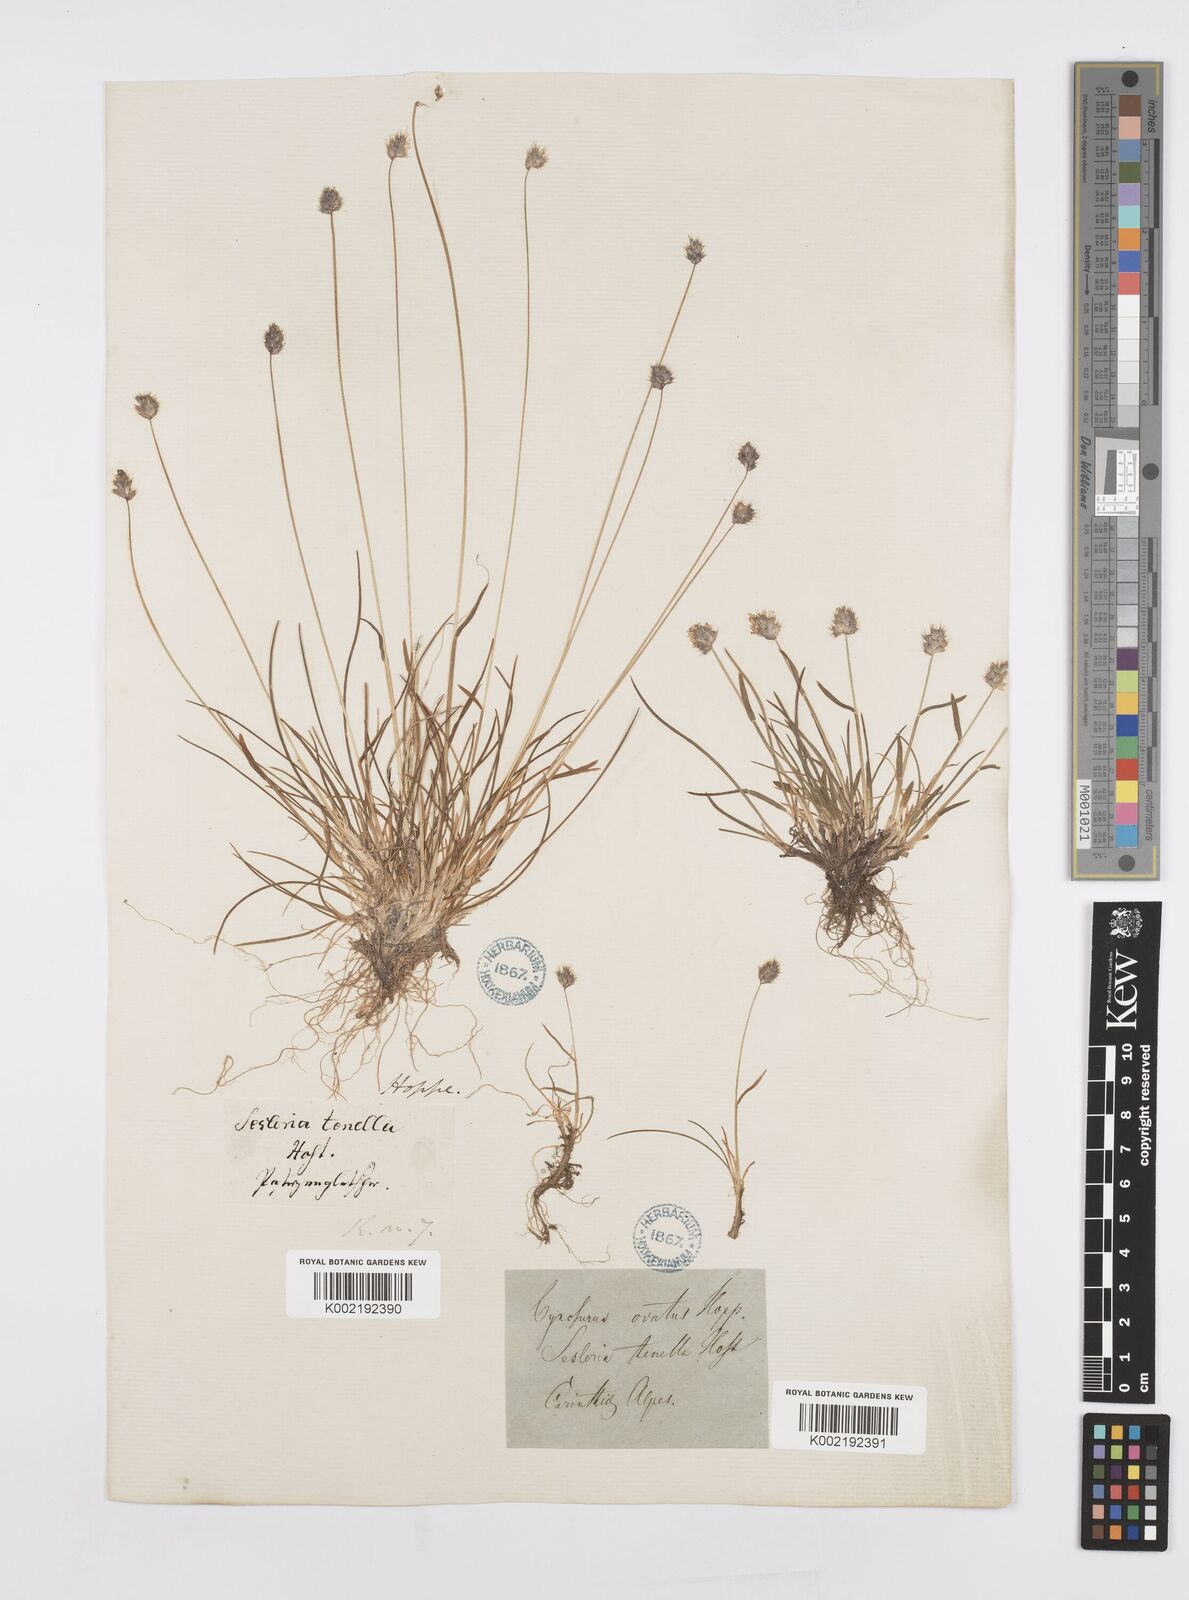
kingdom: Plantae
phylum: Tracheophyta
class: Liliopsida
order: Poales
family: Poaceae
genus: Psilathera
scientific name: Psilathera ovata
